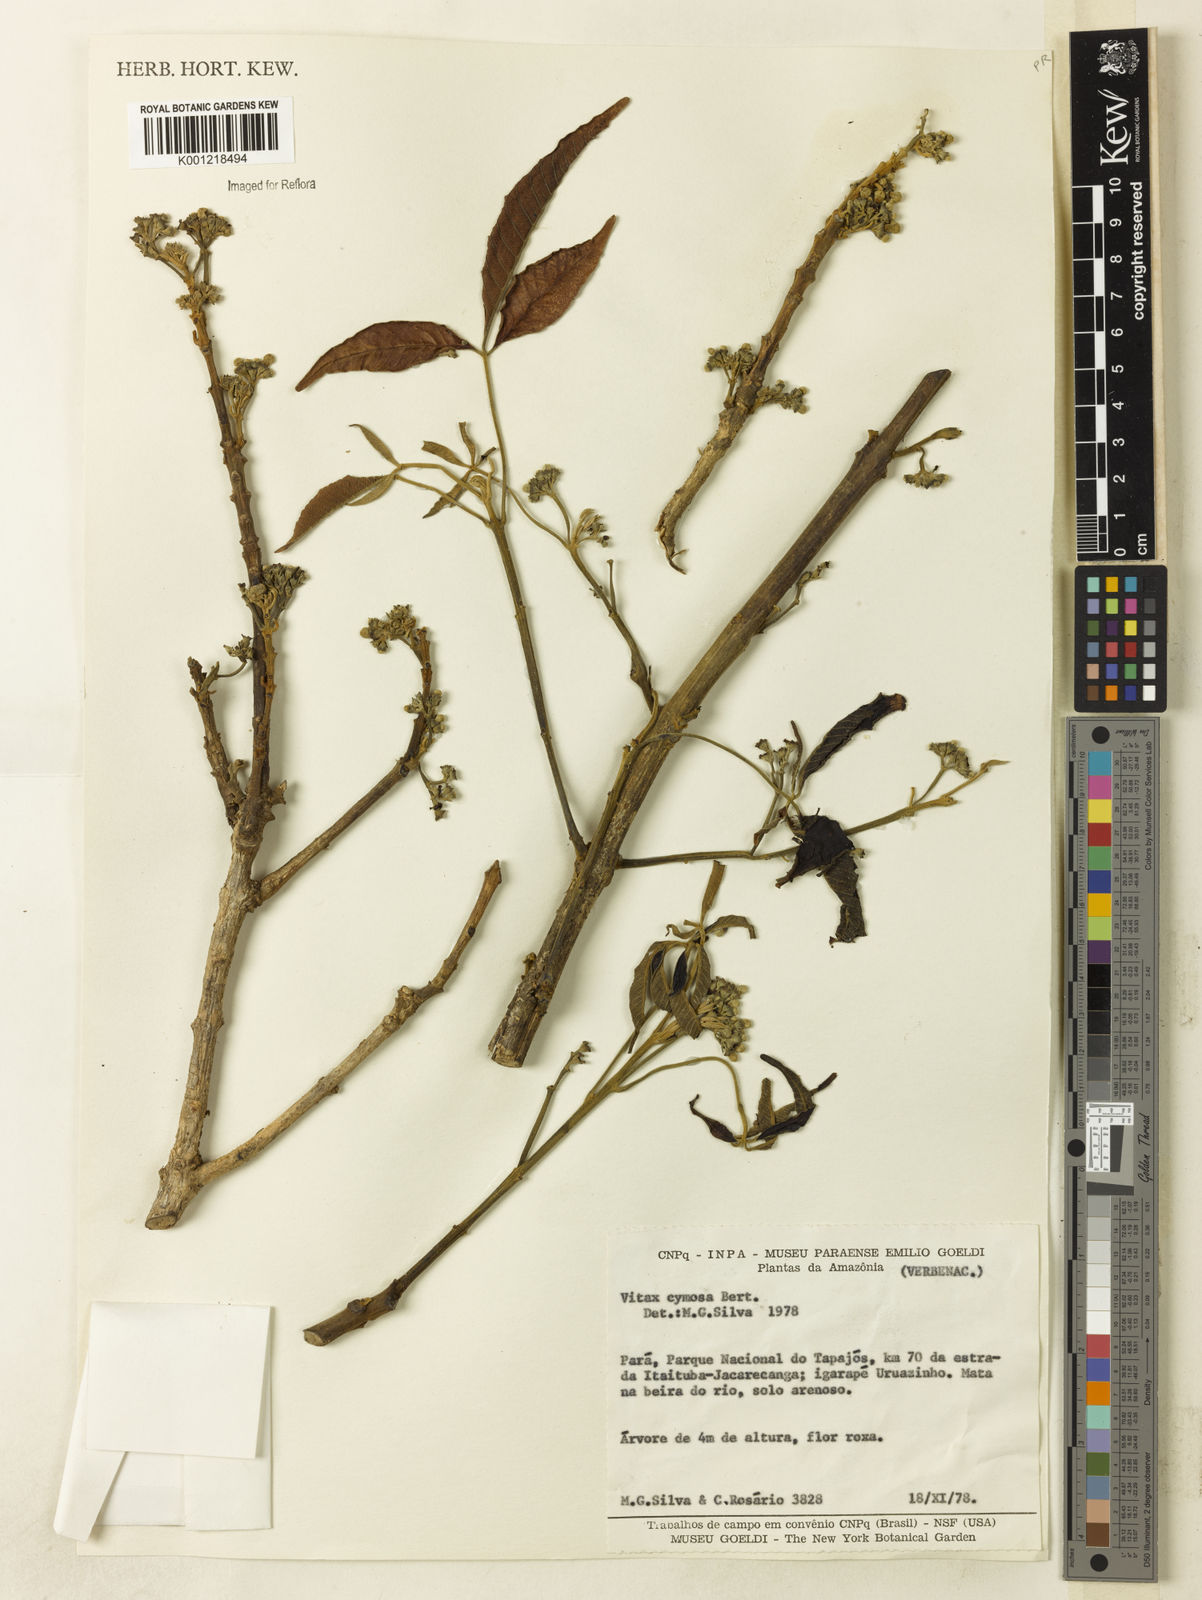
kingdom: Plantae
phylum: Tracheophyta
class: Magnoliopsida
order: Lamiales
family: Lamiaceae
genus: Vitex
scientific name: Vitex cymosa
